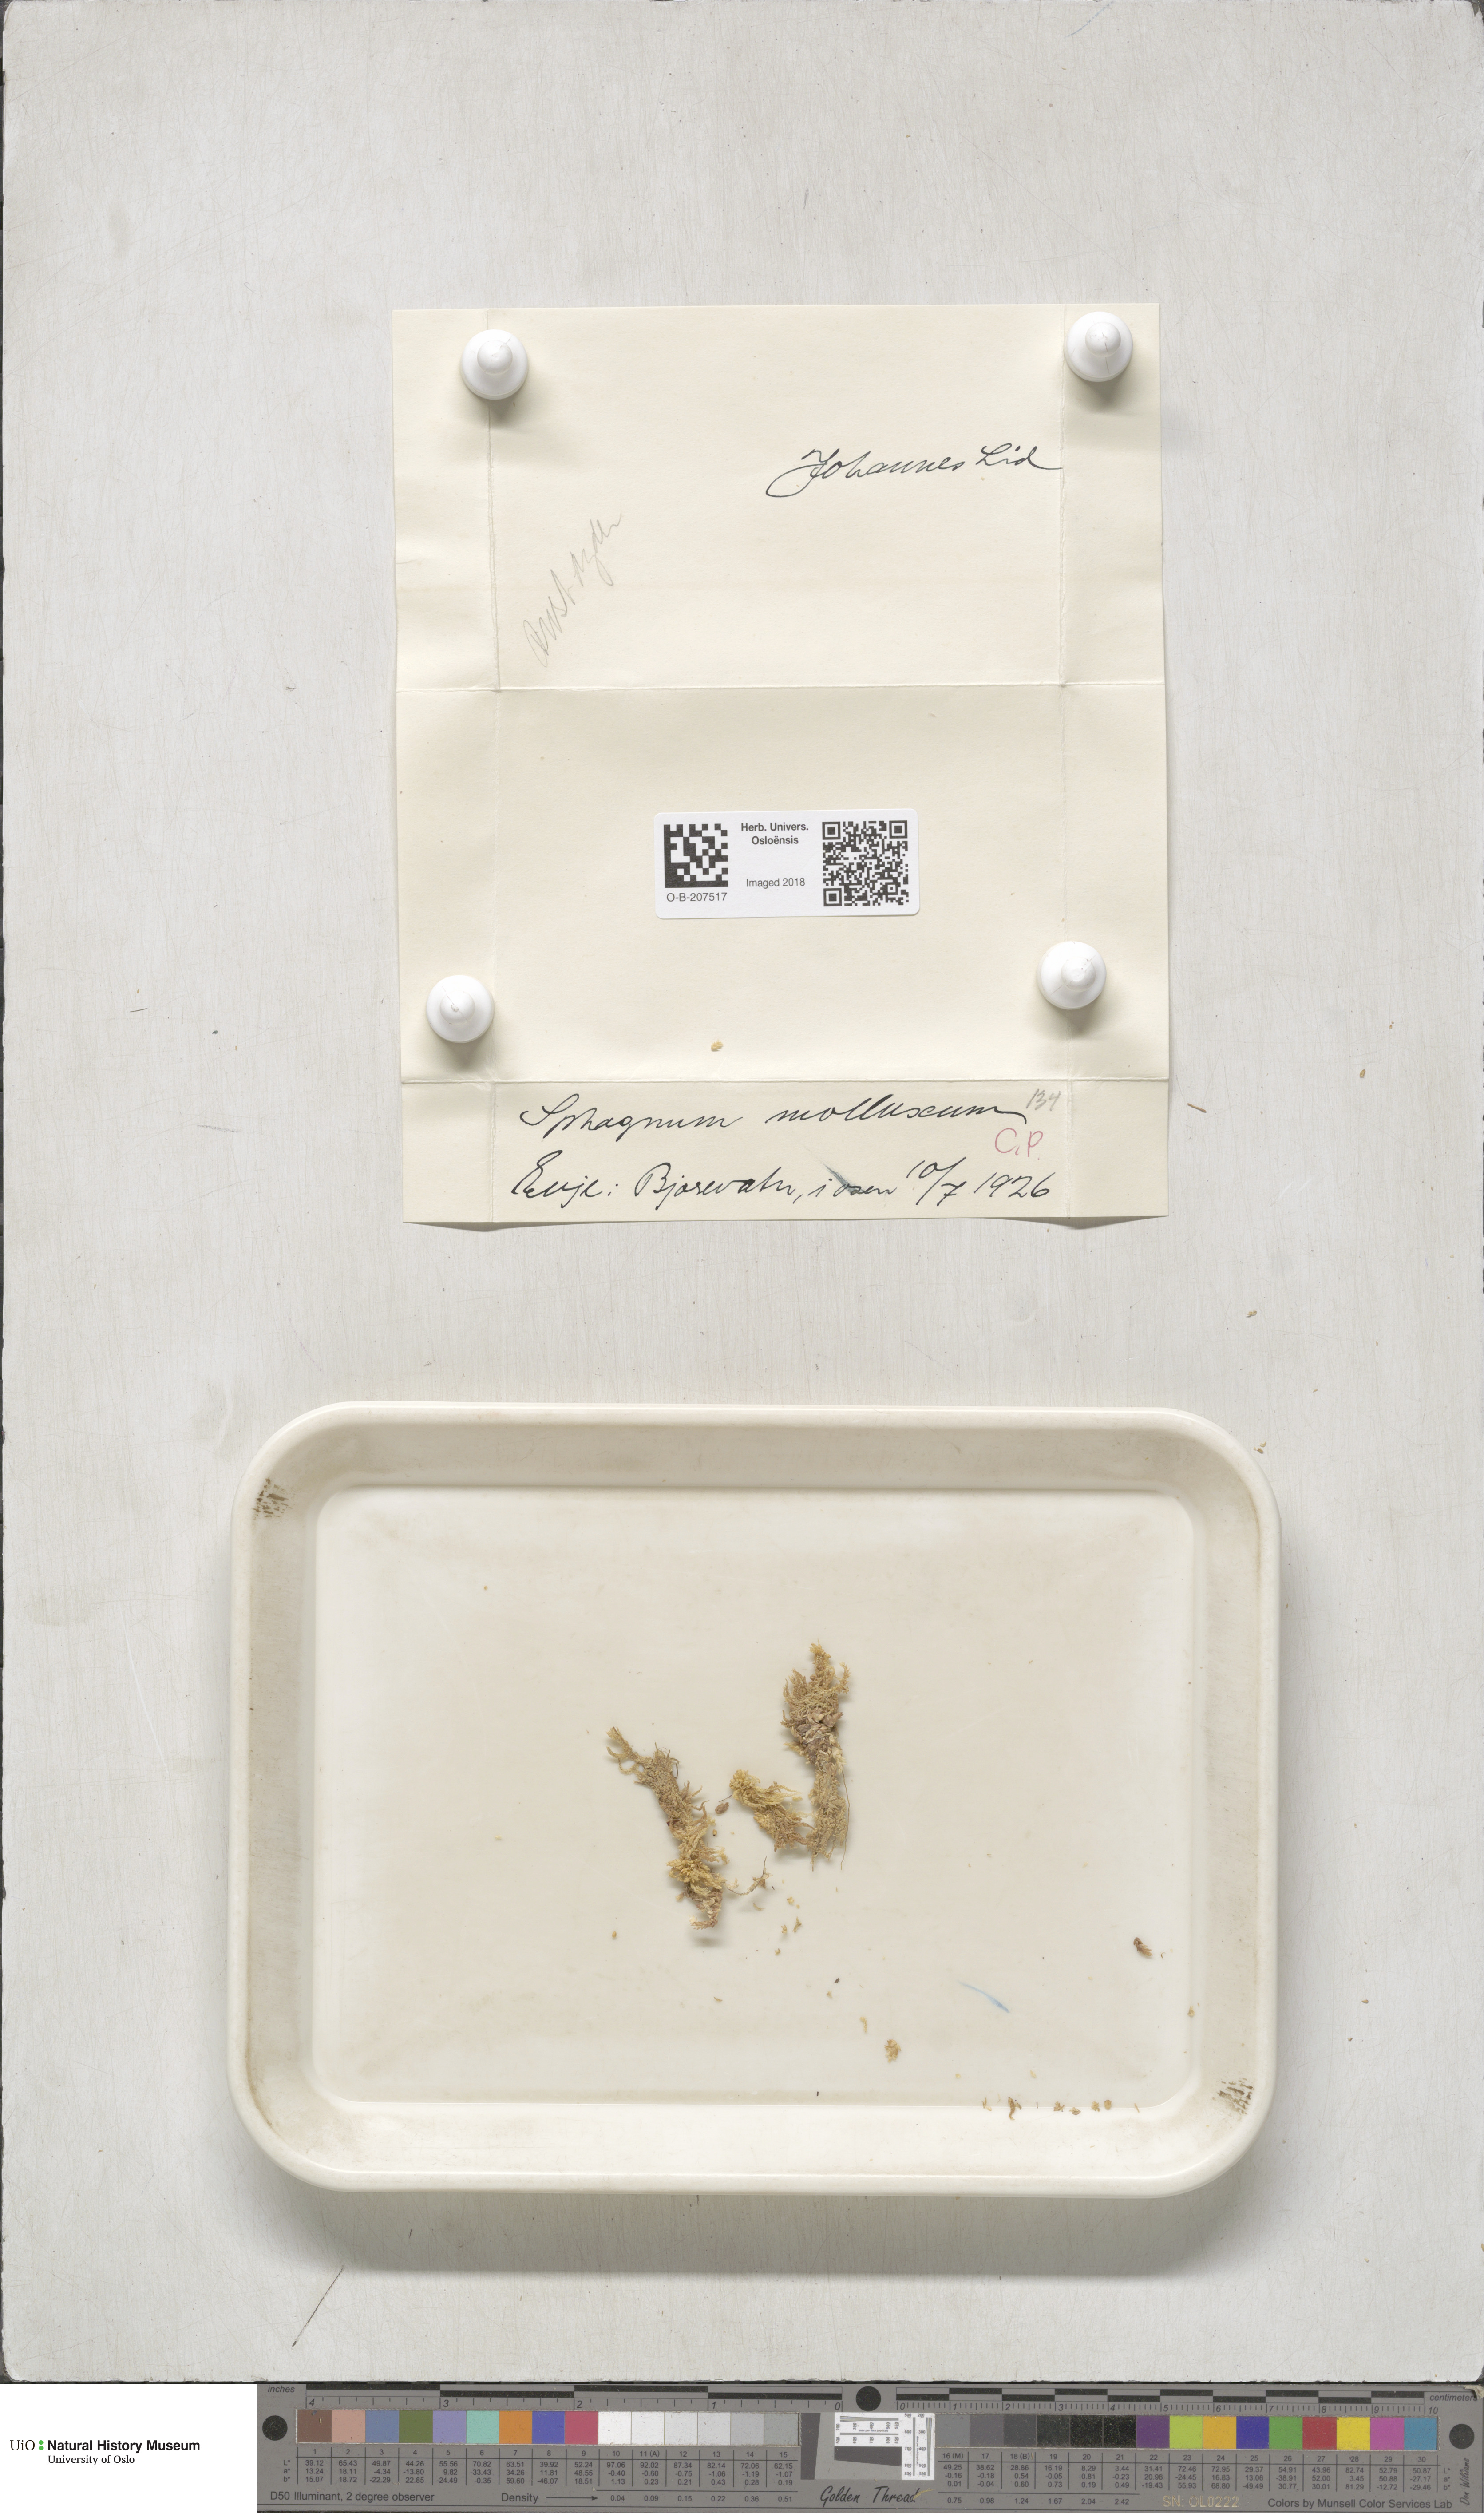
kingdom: Plantae
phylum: Bryophyta
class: Sphagnopsida
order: Sphagnales
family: Sphagnaceae
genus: Sphagnum
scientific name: Sphagnum tenellum
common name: Soft bog-moss
